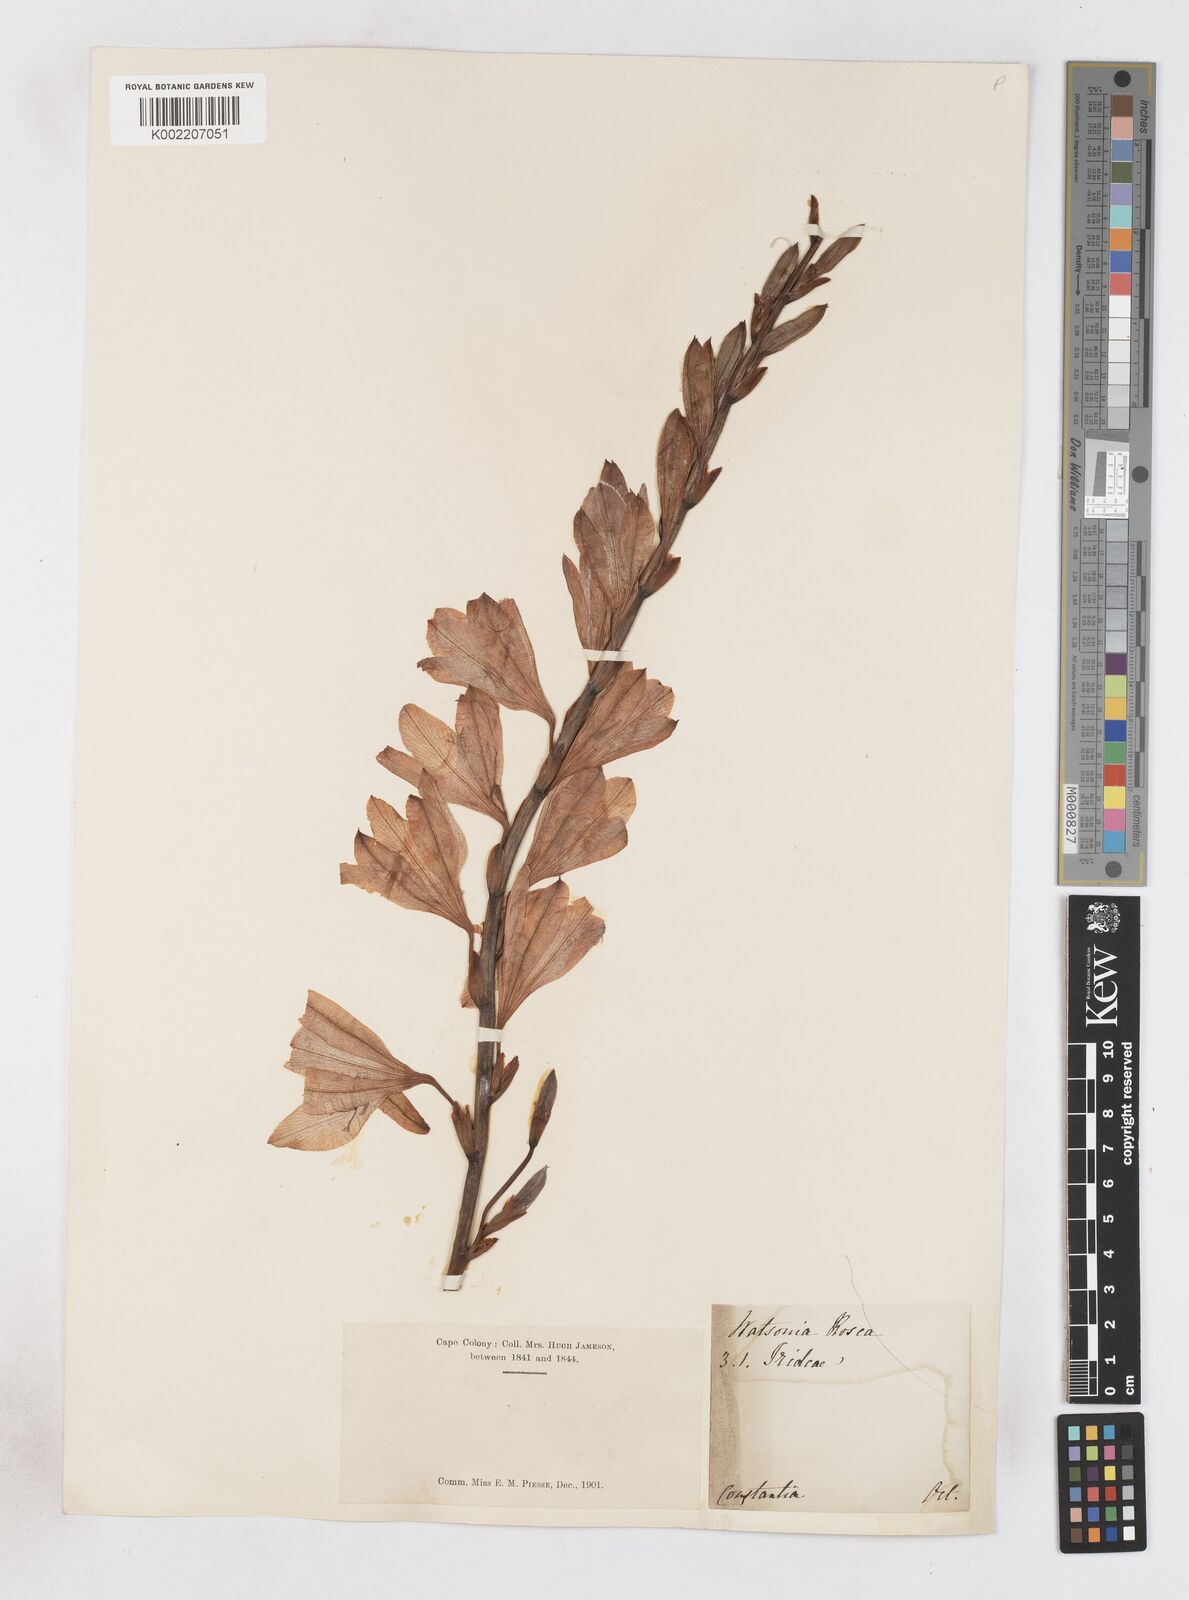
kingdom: Plantae
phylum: Tracheophyta
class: Liliopsida
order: Asparagales
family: Iridaceae
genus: Watsonia
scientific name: Watsonia borbonica
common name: Bugle-lily
